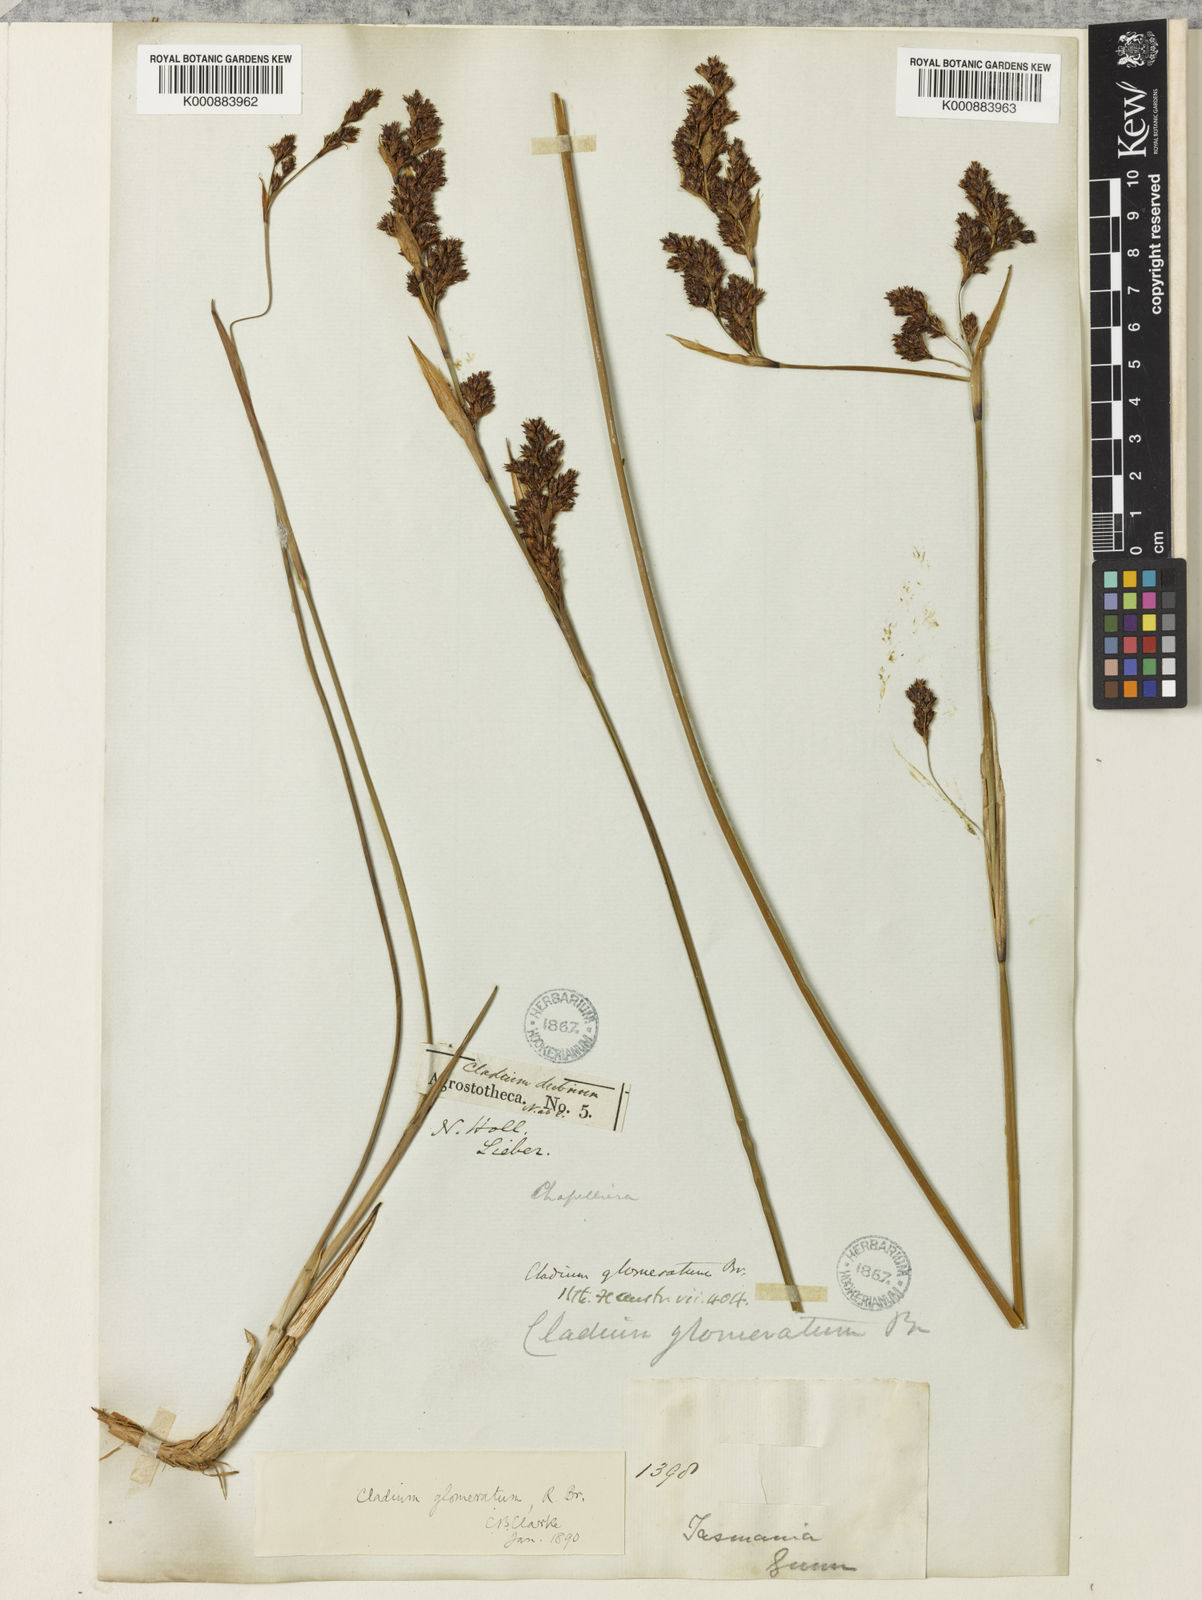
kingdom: Plantae
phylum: Tracheophyta
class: Liliopsida
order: Poales
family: Cyperaceae
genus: Machaerina
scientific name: Machaerina rubiginosa
